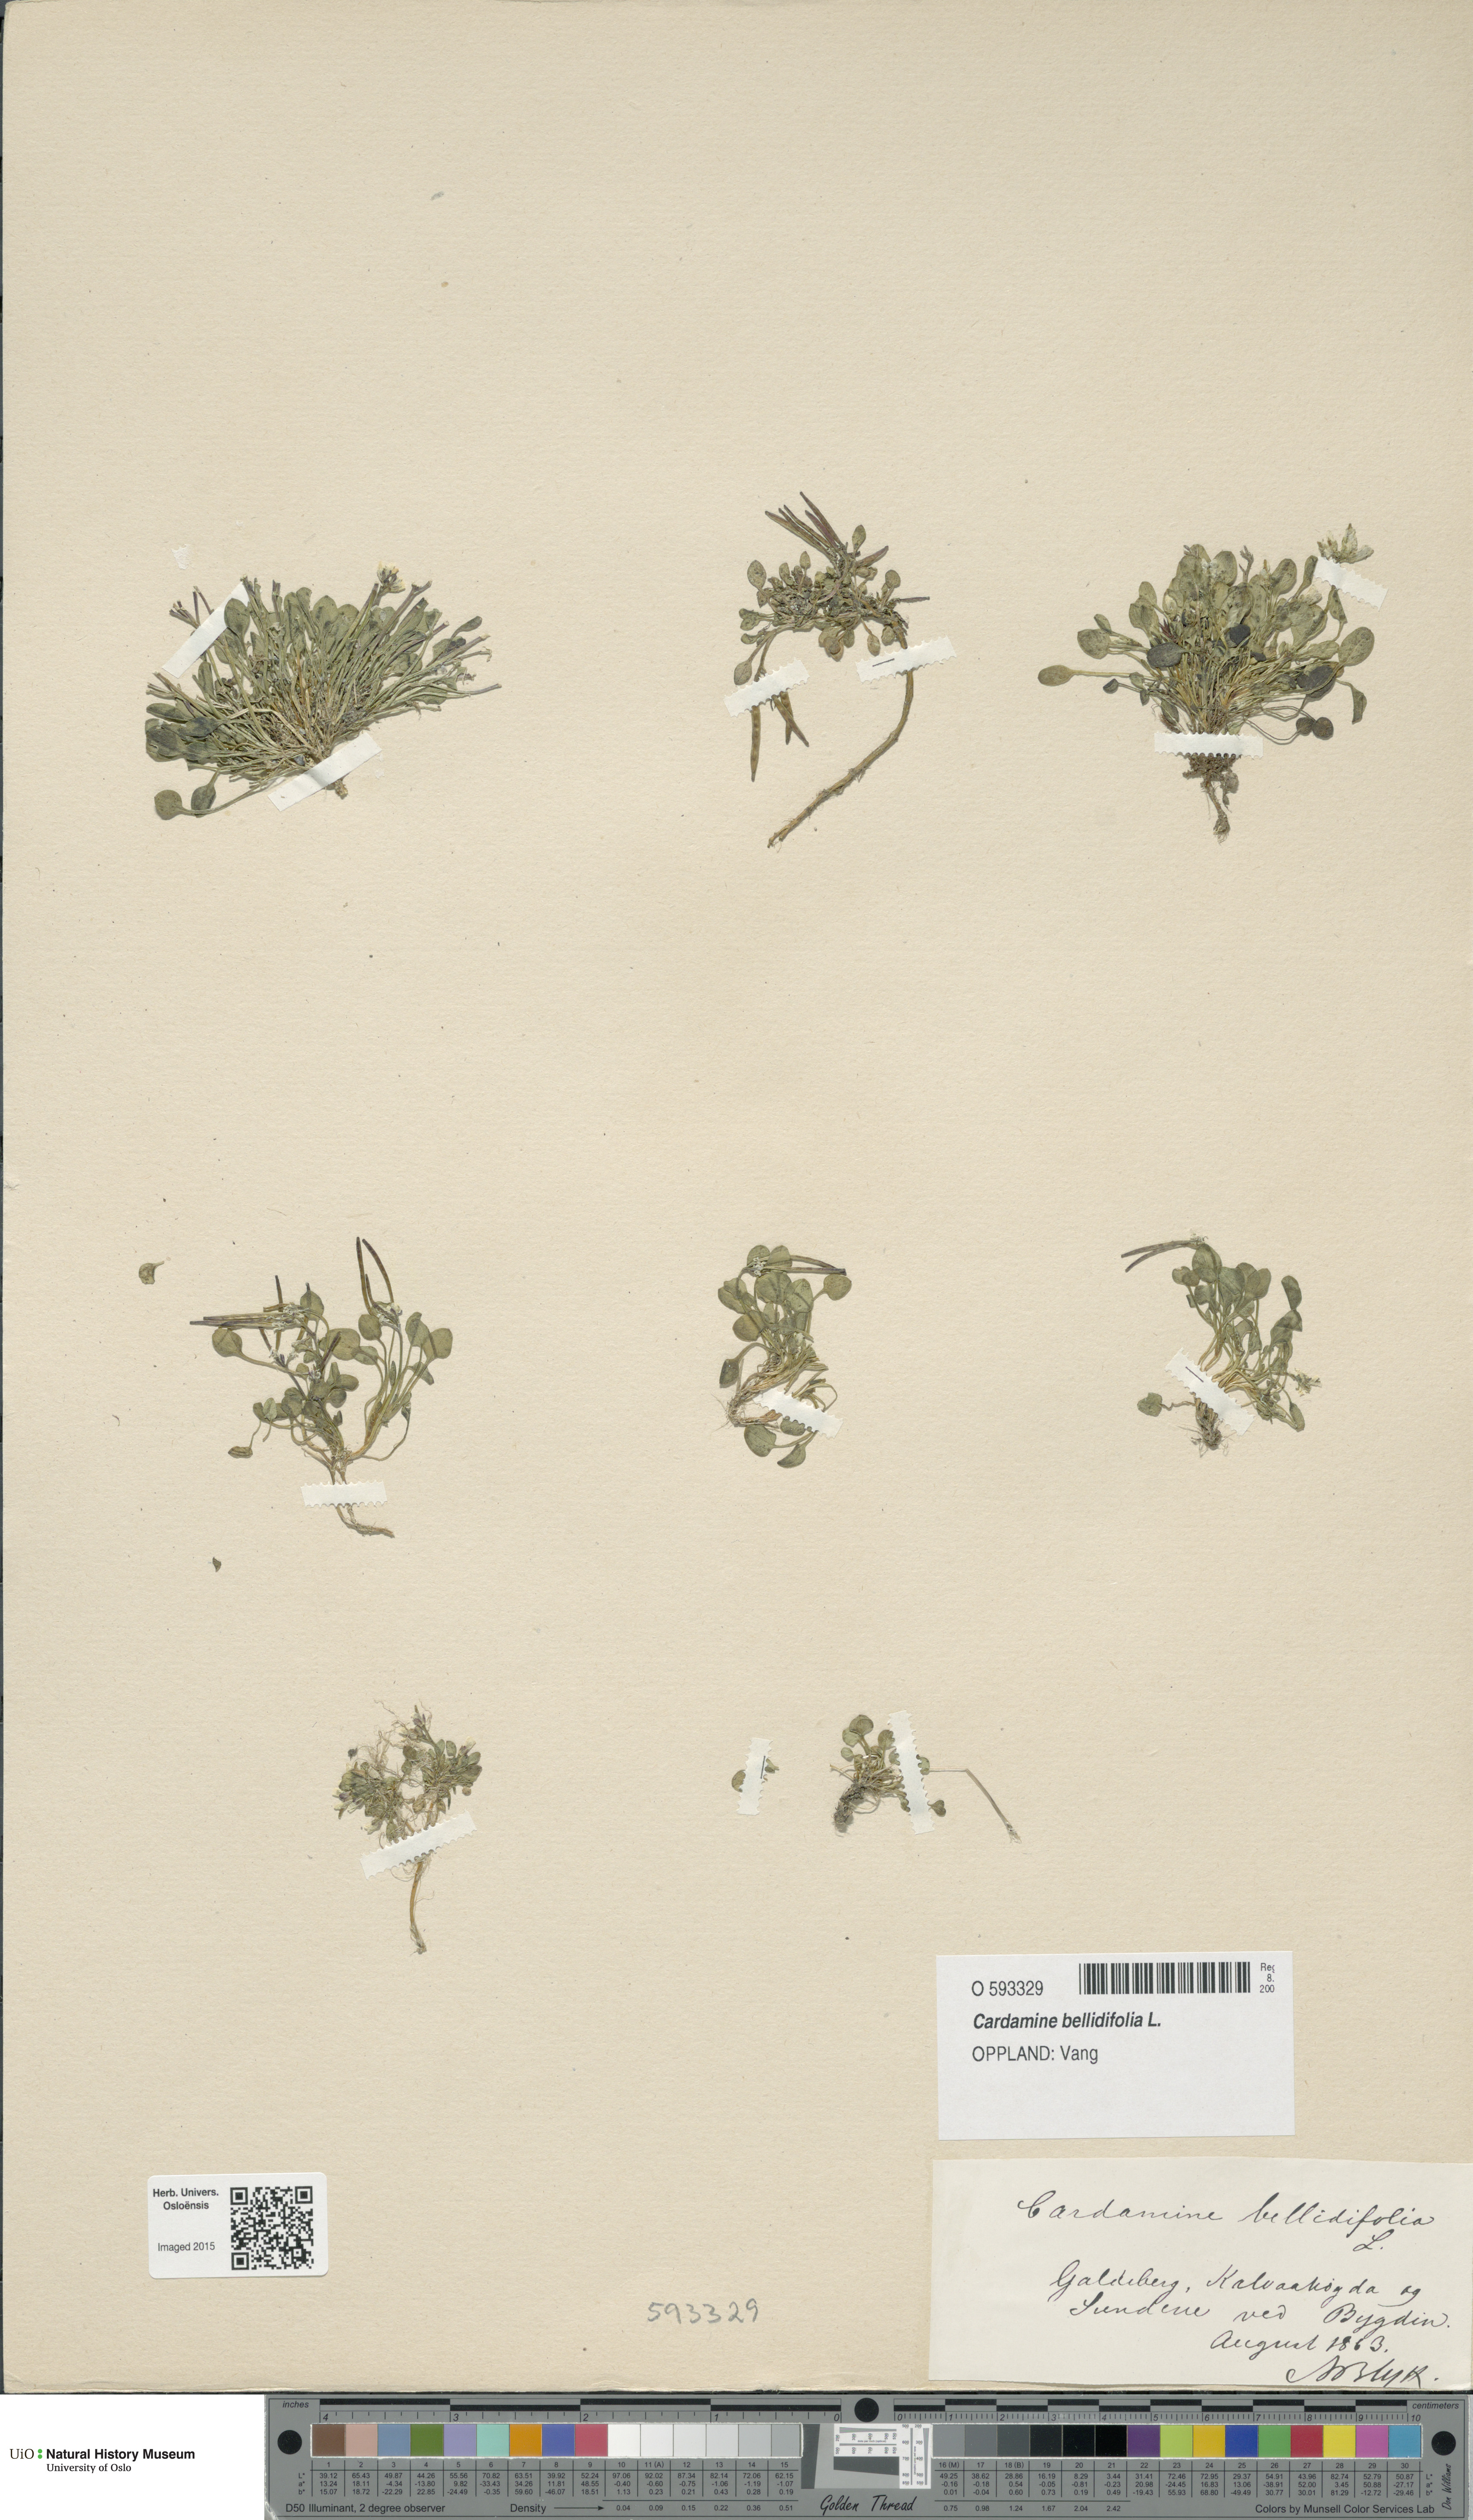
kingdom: Plantae
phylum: Tracheophyta
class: Magnoliopsida
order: Brassicales
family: Brassicaceae
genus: Cardamine
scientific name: Cardamine bellidifolia
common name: Alpine bittercress
